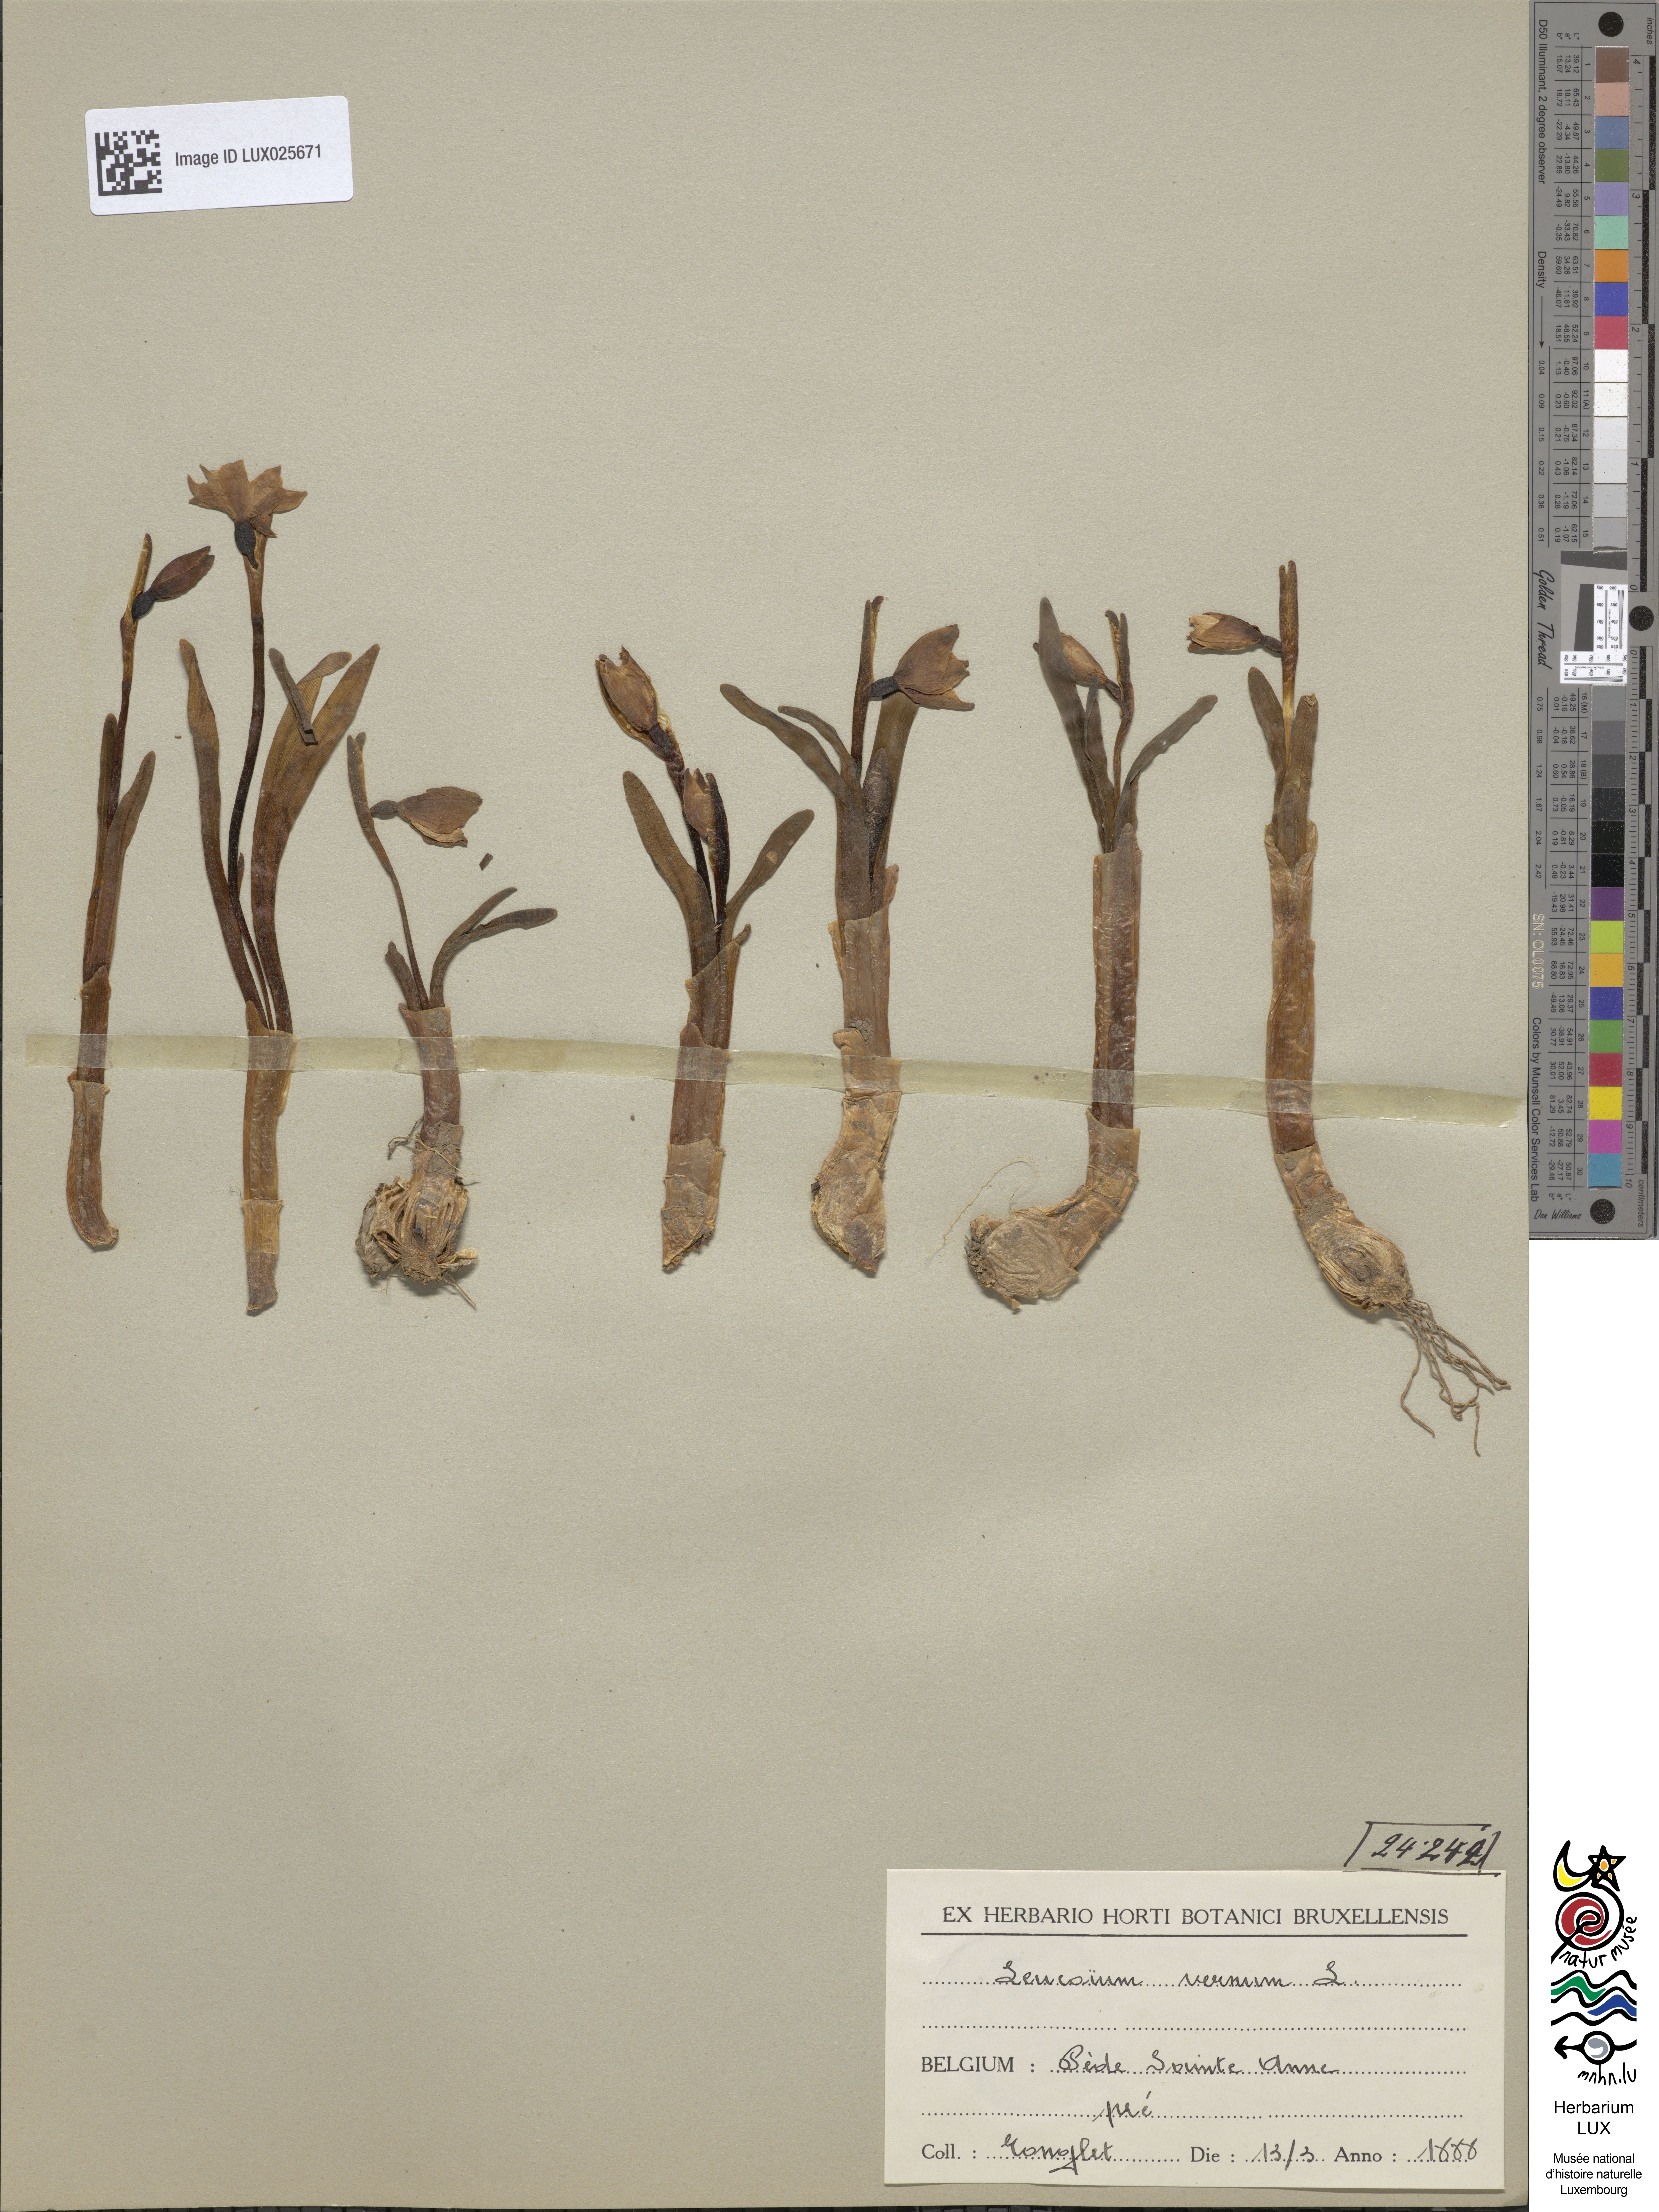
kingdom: Plantae
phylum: Tracheophyta
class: Liliopsida
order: Asparagales
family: Amaryllidaceae
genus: Leucojum
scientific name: Leucojum vernum
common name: Spring snowflake
